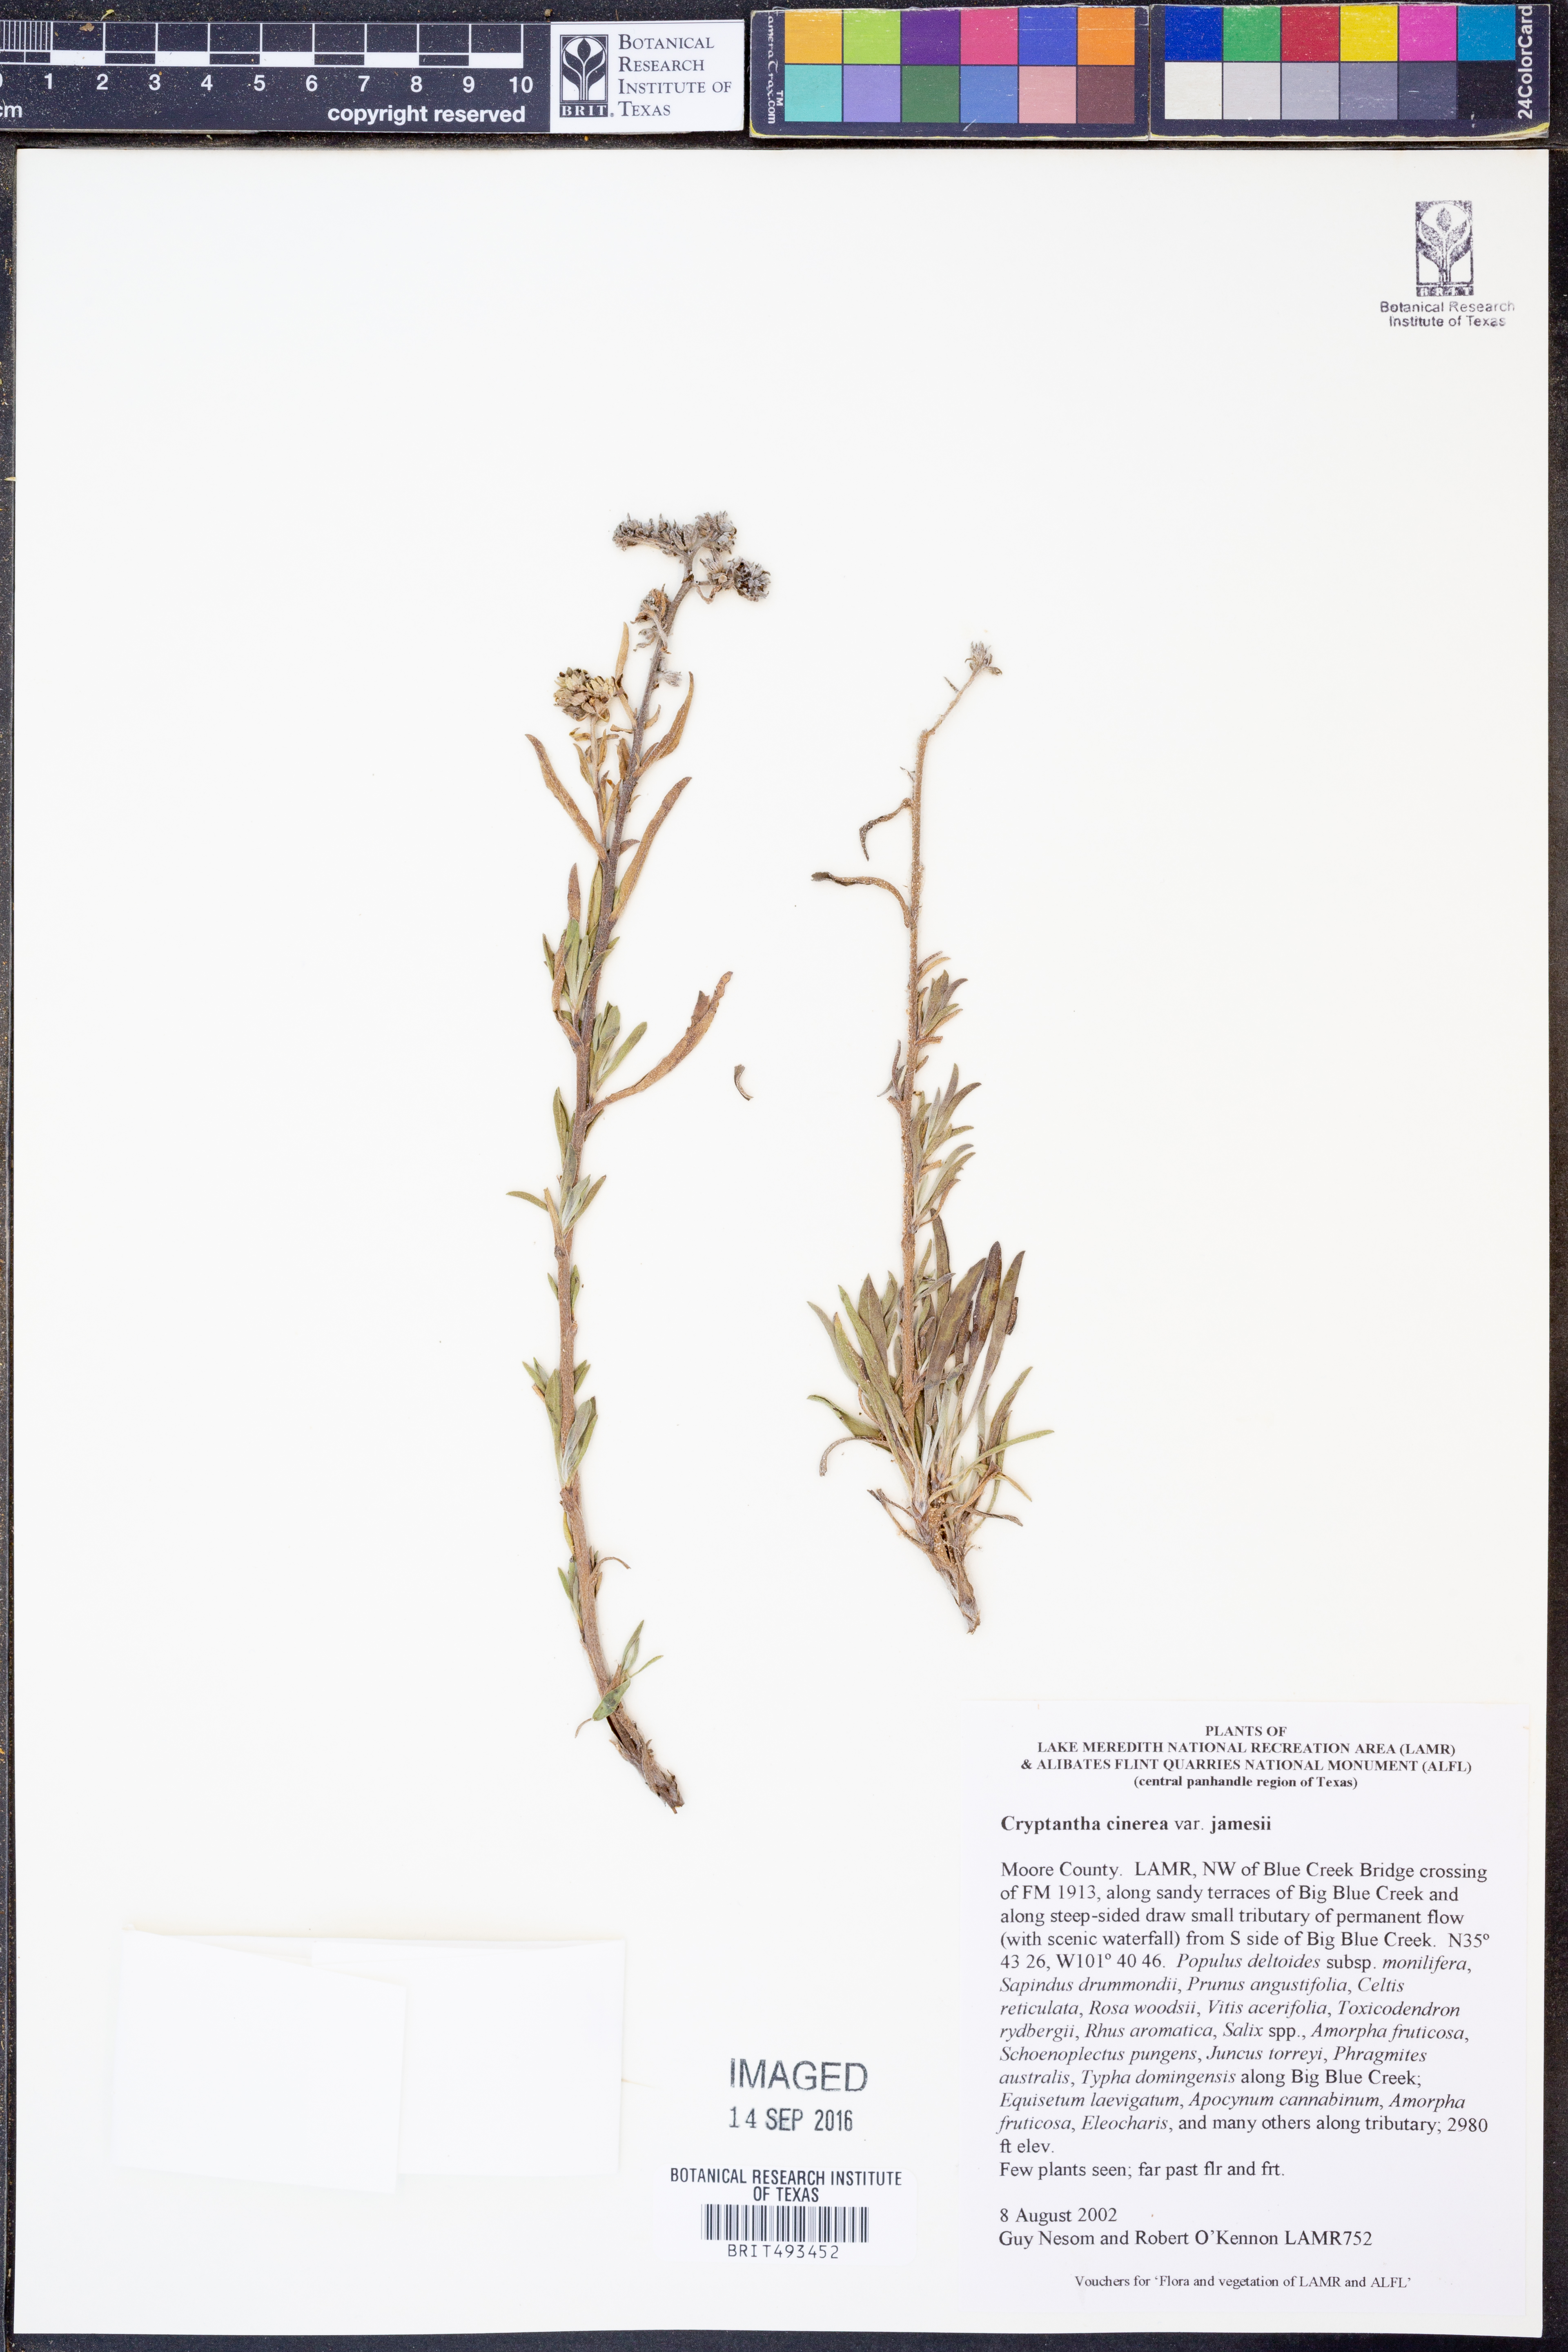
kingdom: Plantae
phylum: Tracheophyta
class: Magnoliopsida
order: Boraginales
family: Boraginaceae
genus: Oreocarya
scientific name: Oreocarya suffruticosa
